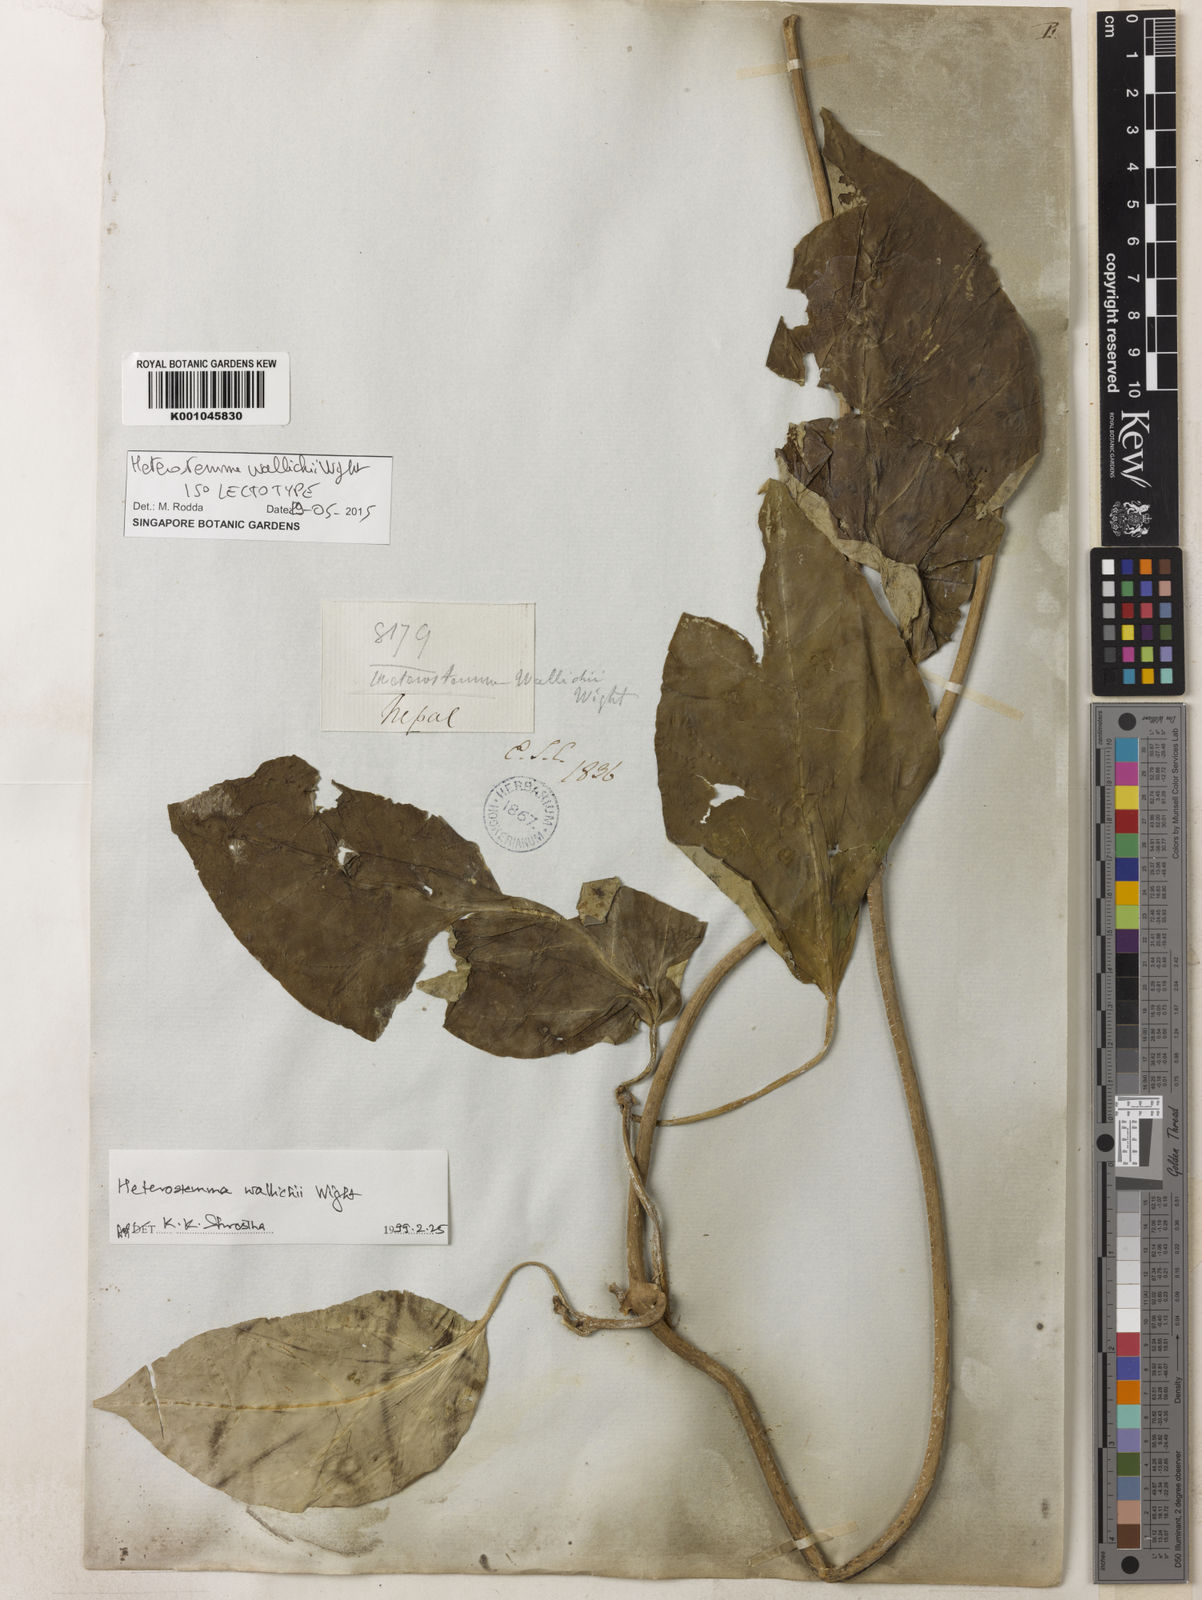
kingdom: Plantae
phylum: Tracheophyta
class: Magnoliopsida
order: Gentianales
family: Apocynaceae
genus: Heterostemma
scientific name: Heterostemma wallichii
